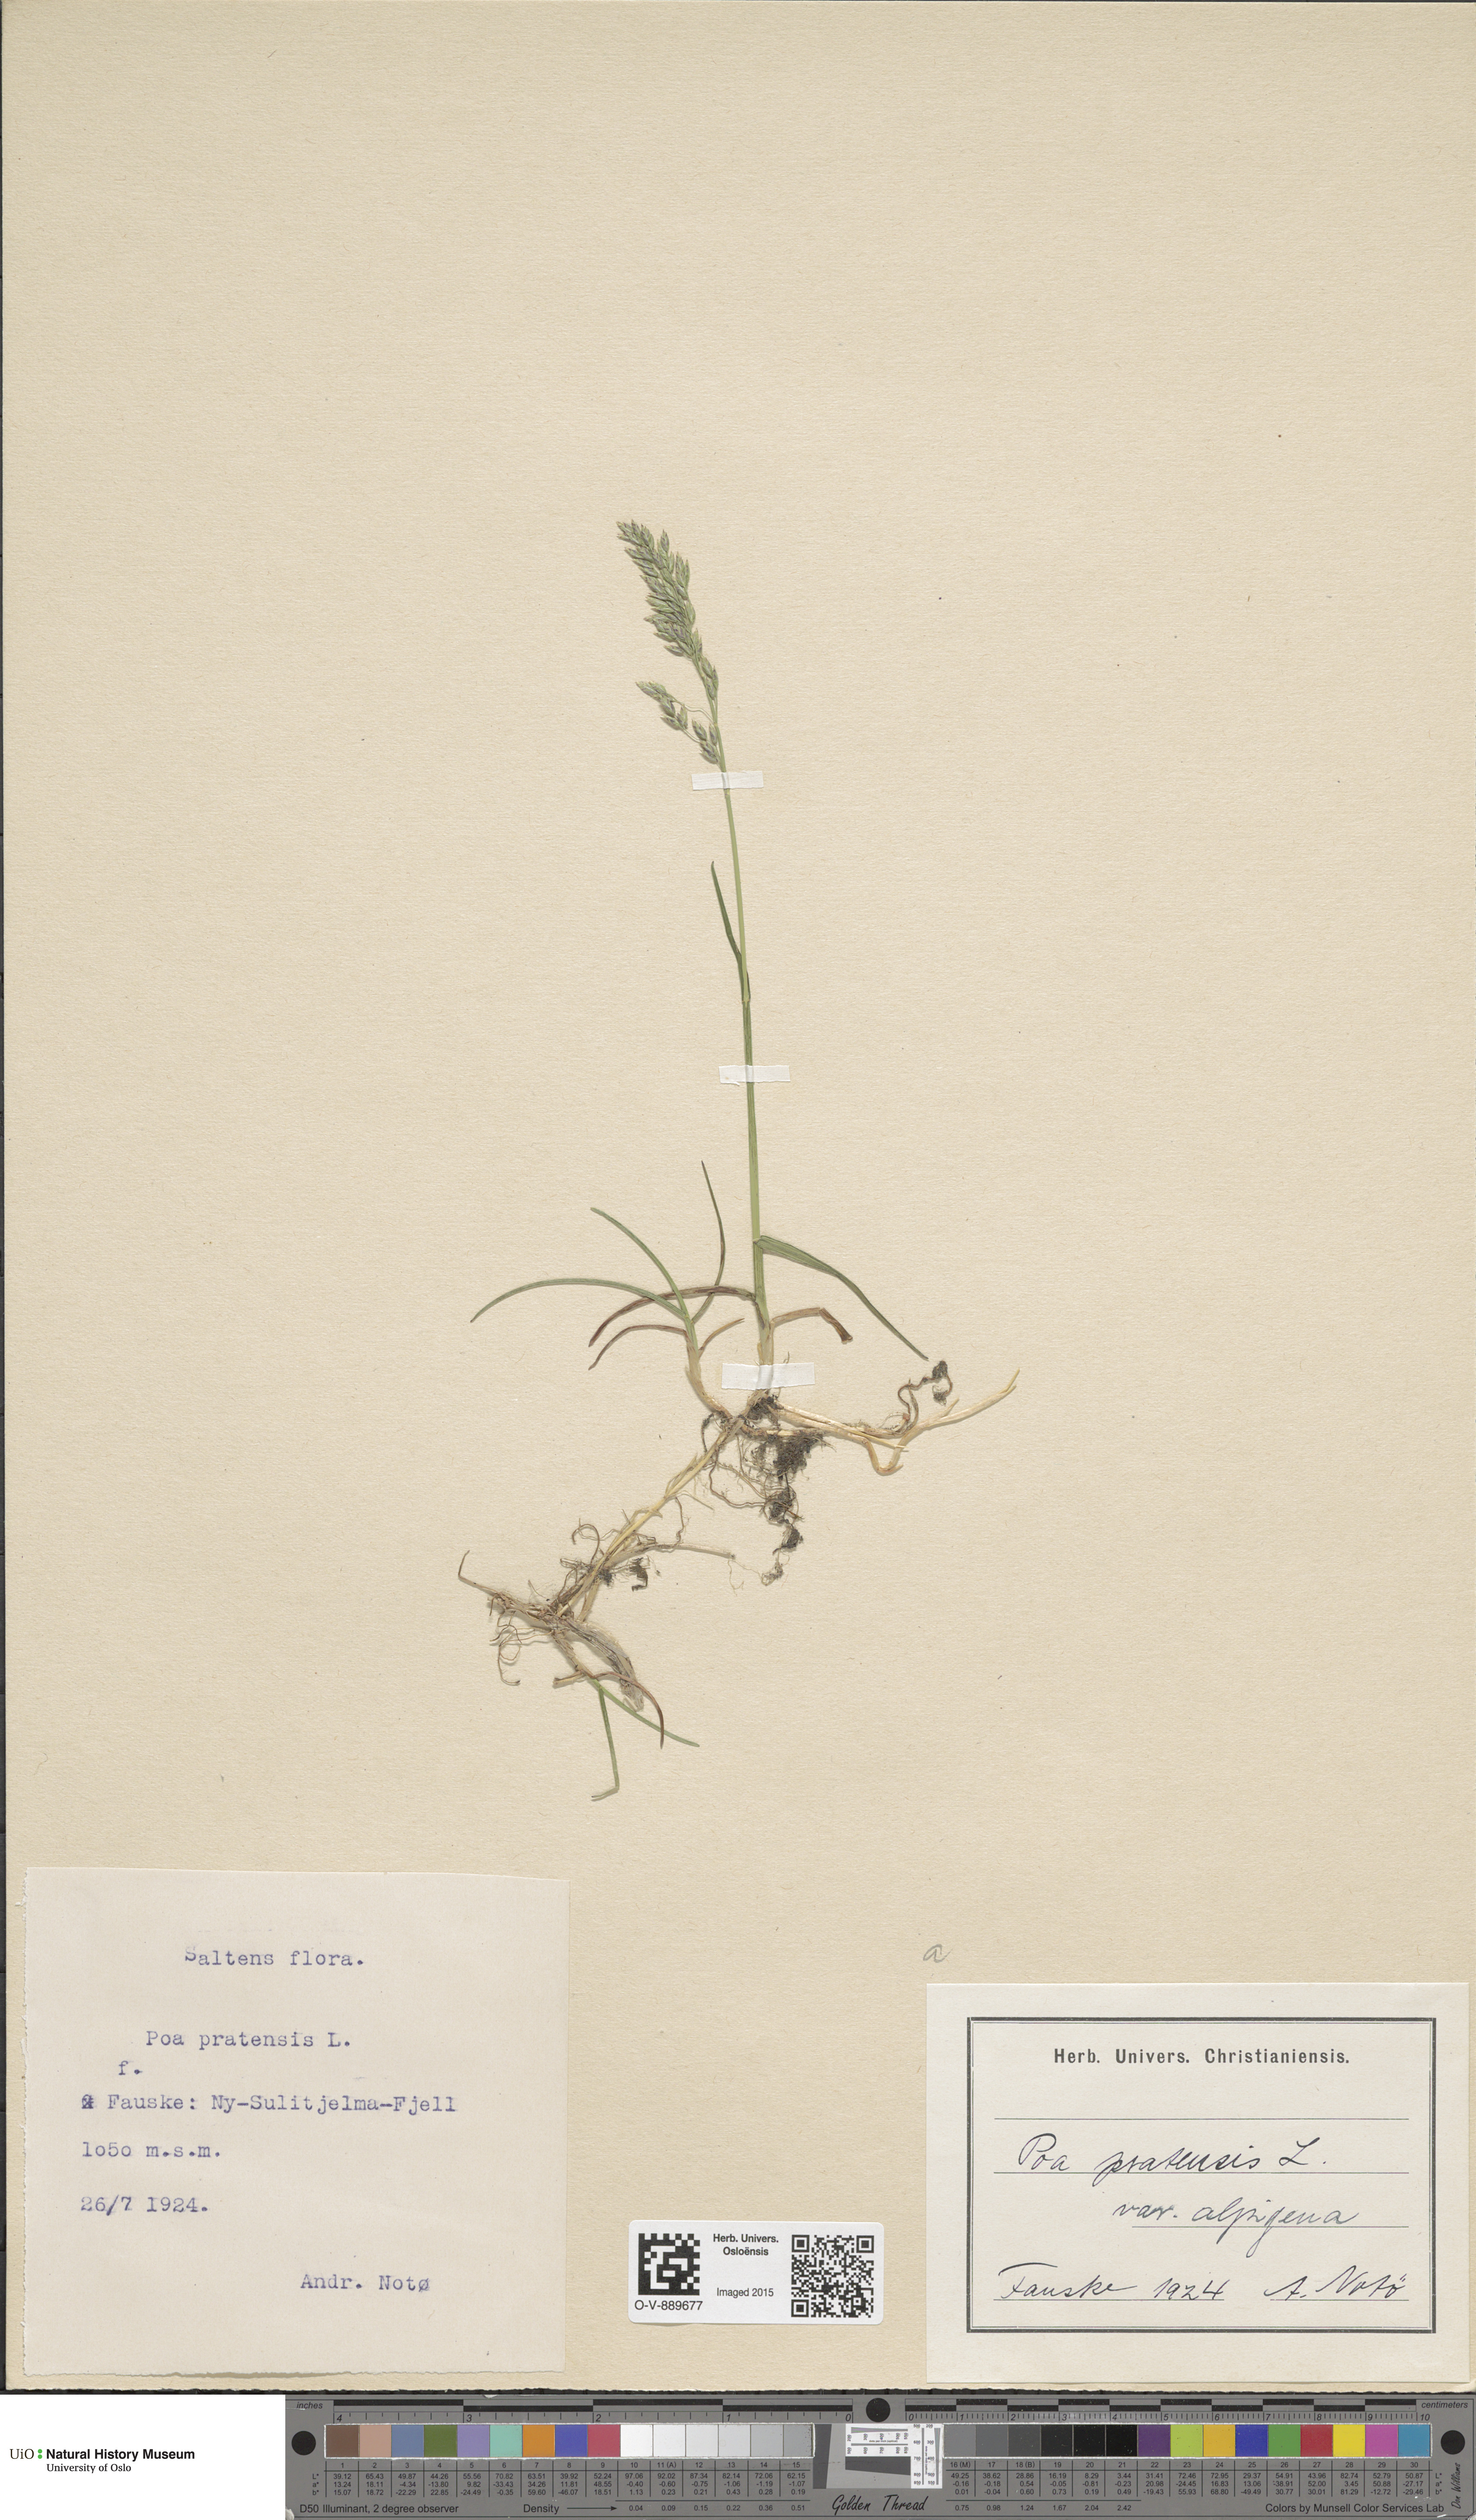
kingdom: Plantae
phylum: Tracheophyta
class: Liliopsida
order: Poales
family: Poaceae
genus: Poa
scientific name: Poa alpigena
